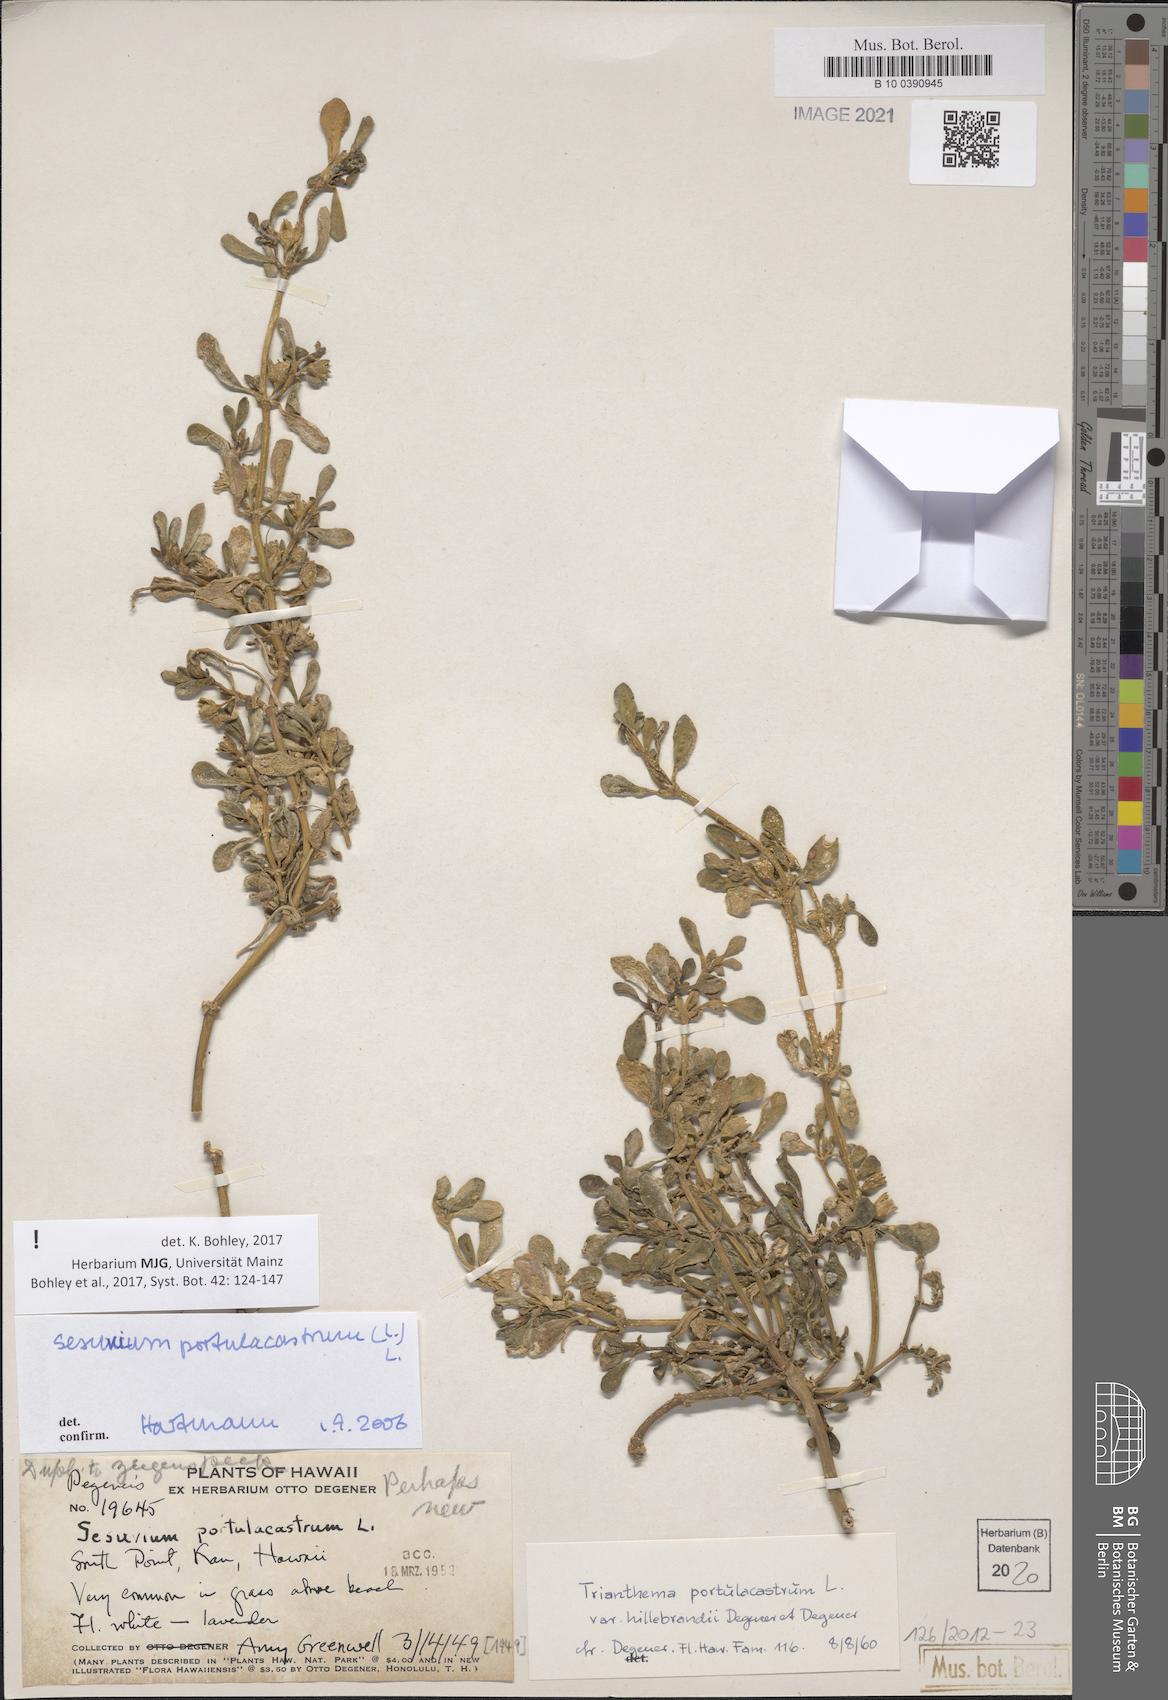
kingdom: Plantae
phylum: Tracheophyta
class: Magnoliopsida
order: Caryophyllales
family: Aizoaceae
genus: Sesuvium
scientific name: Sesuvium portulacastrum
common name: Sea-purslane
